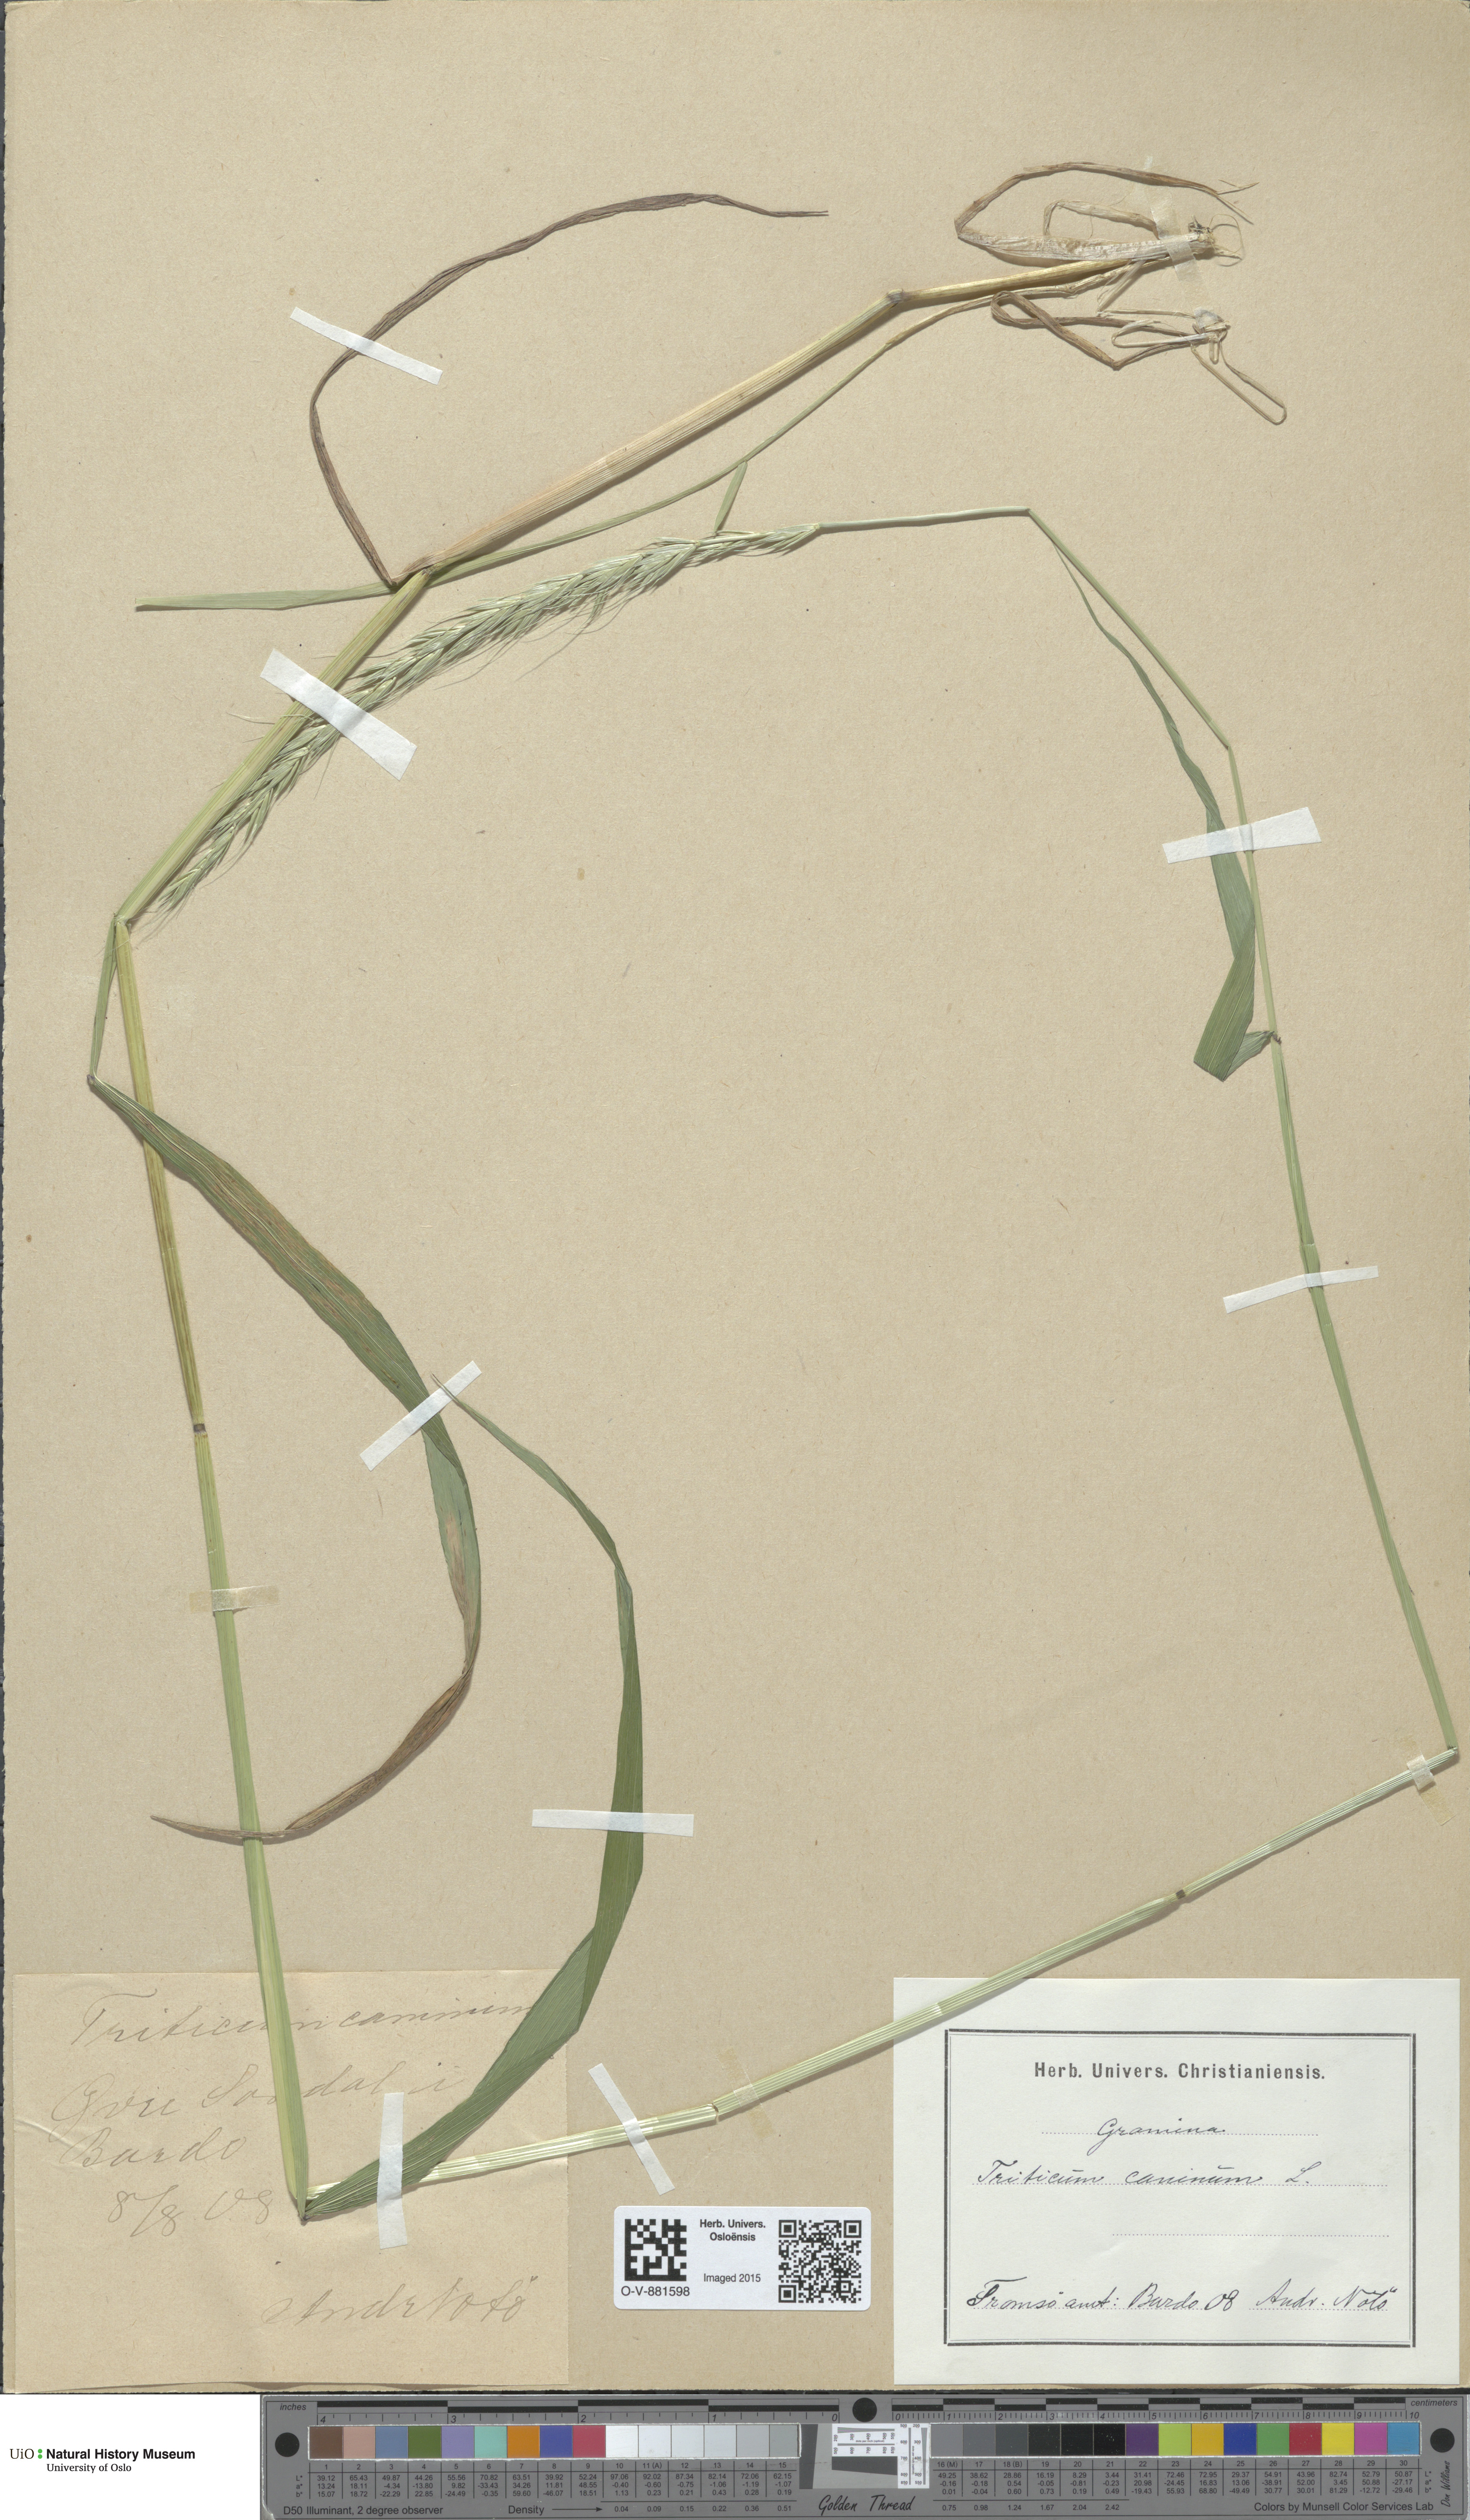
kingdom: Plantae
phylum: Tracheophyta
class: Liliopsida
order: Poales
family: Poaceae
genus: Elymus
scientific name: Elymus caninus
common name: Bearded couch
